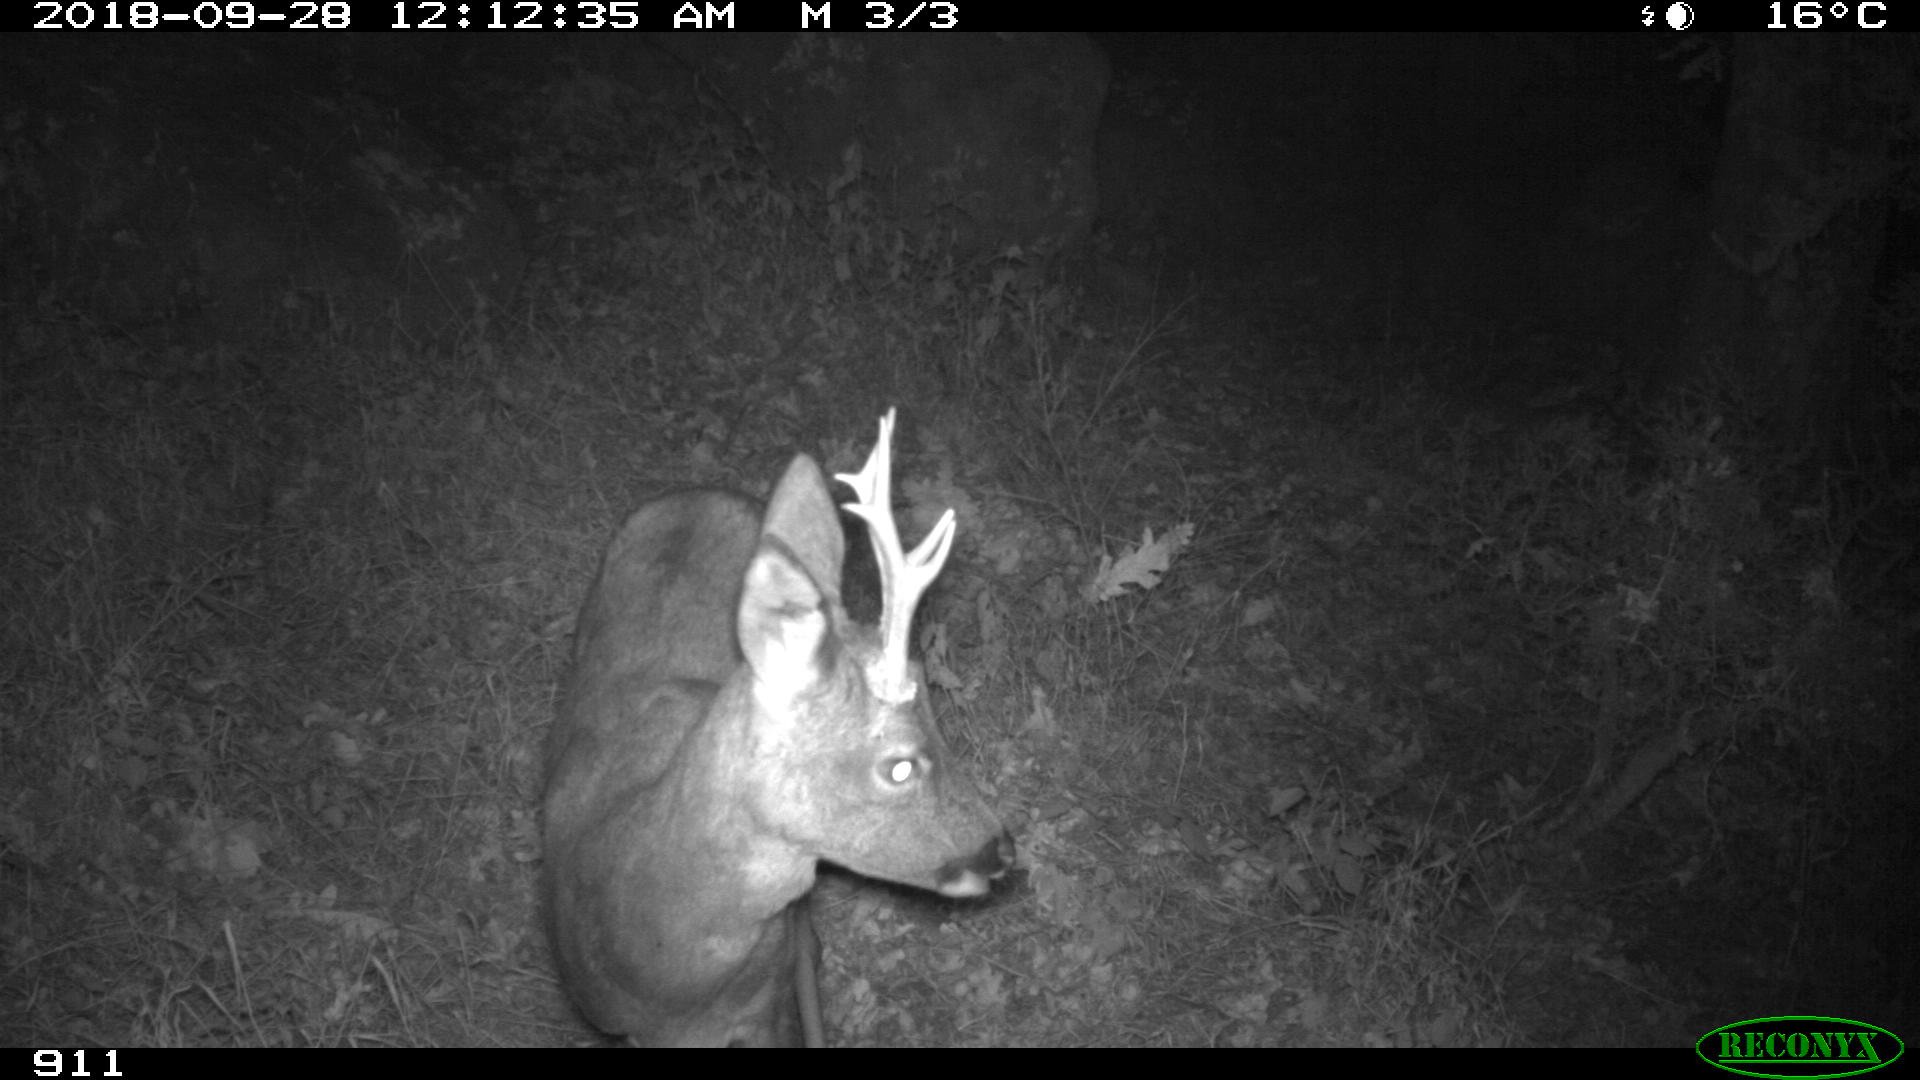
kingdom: Animalia
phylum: Chordata
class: Mammalia
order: Artiodactyla
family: Cervidae
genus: Capreolus
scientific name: Capreolus capreolus
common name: Western roe deer
